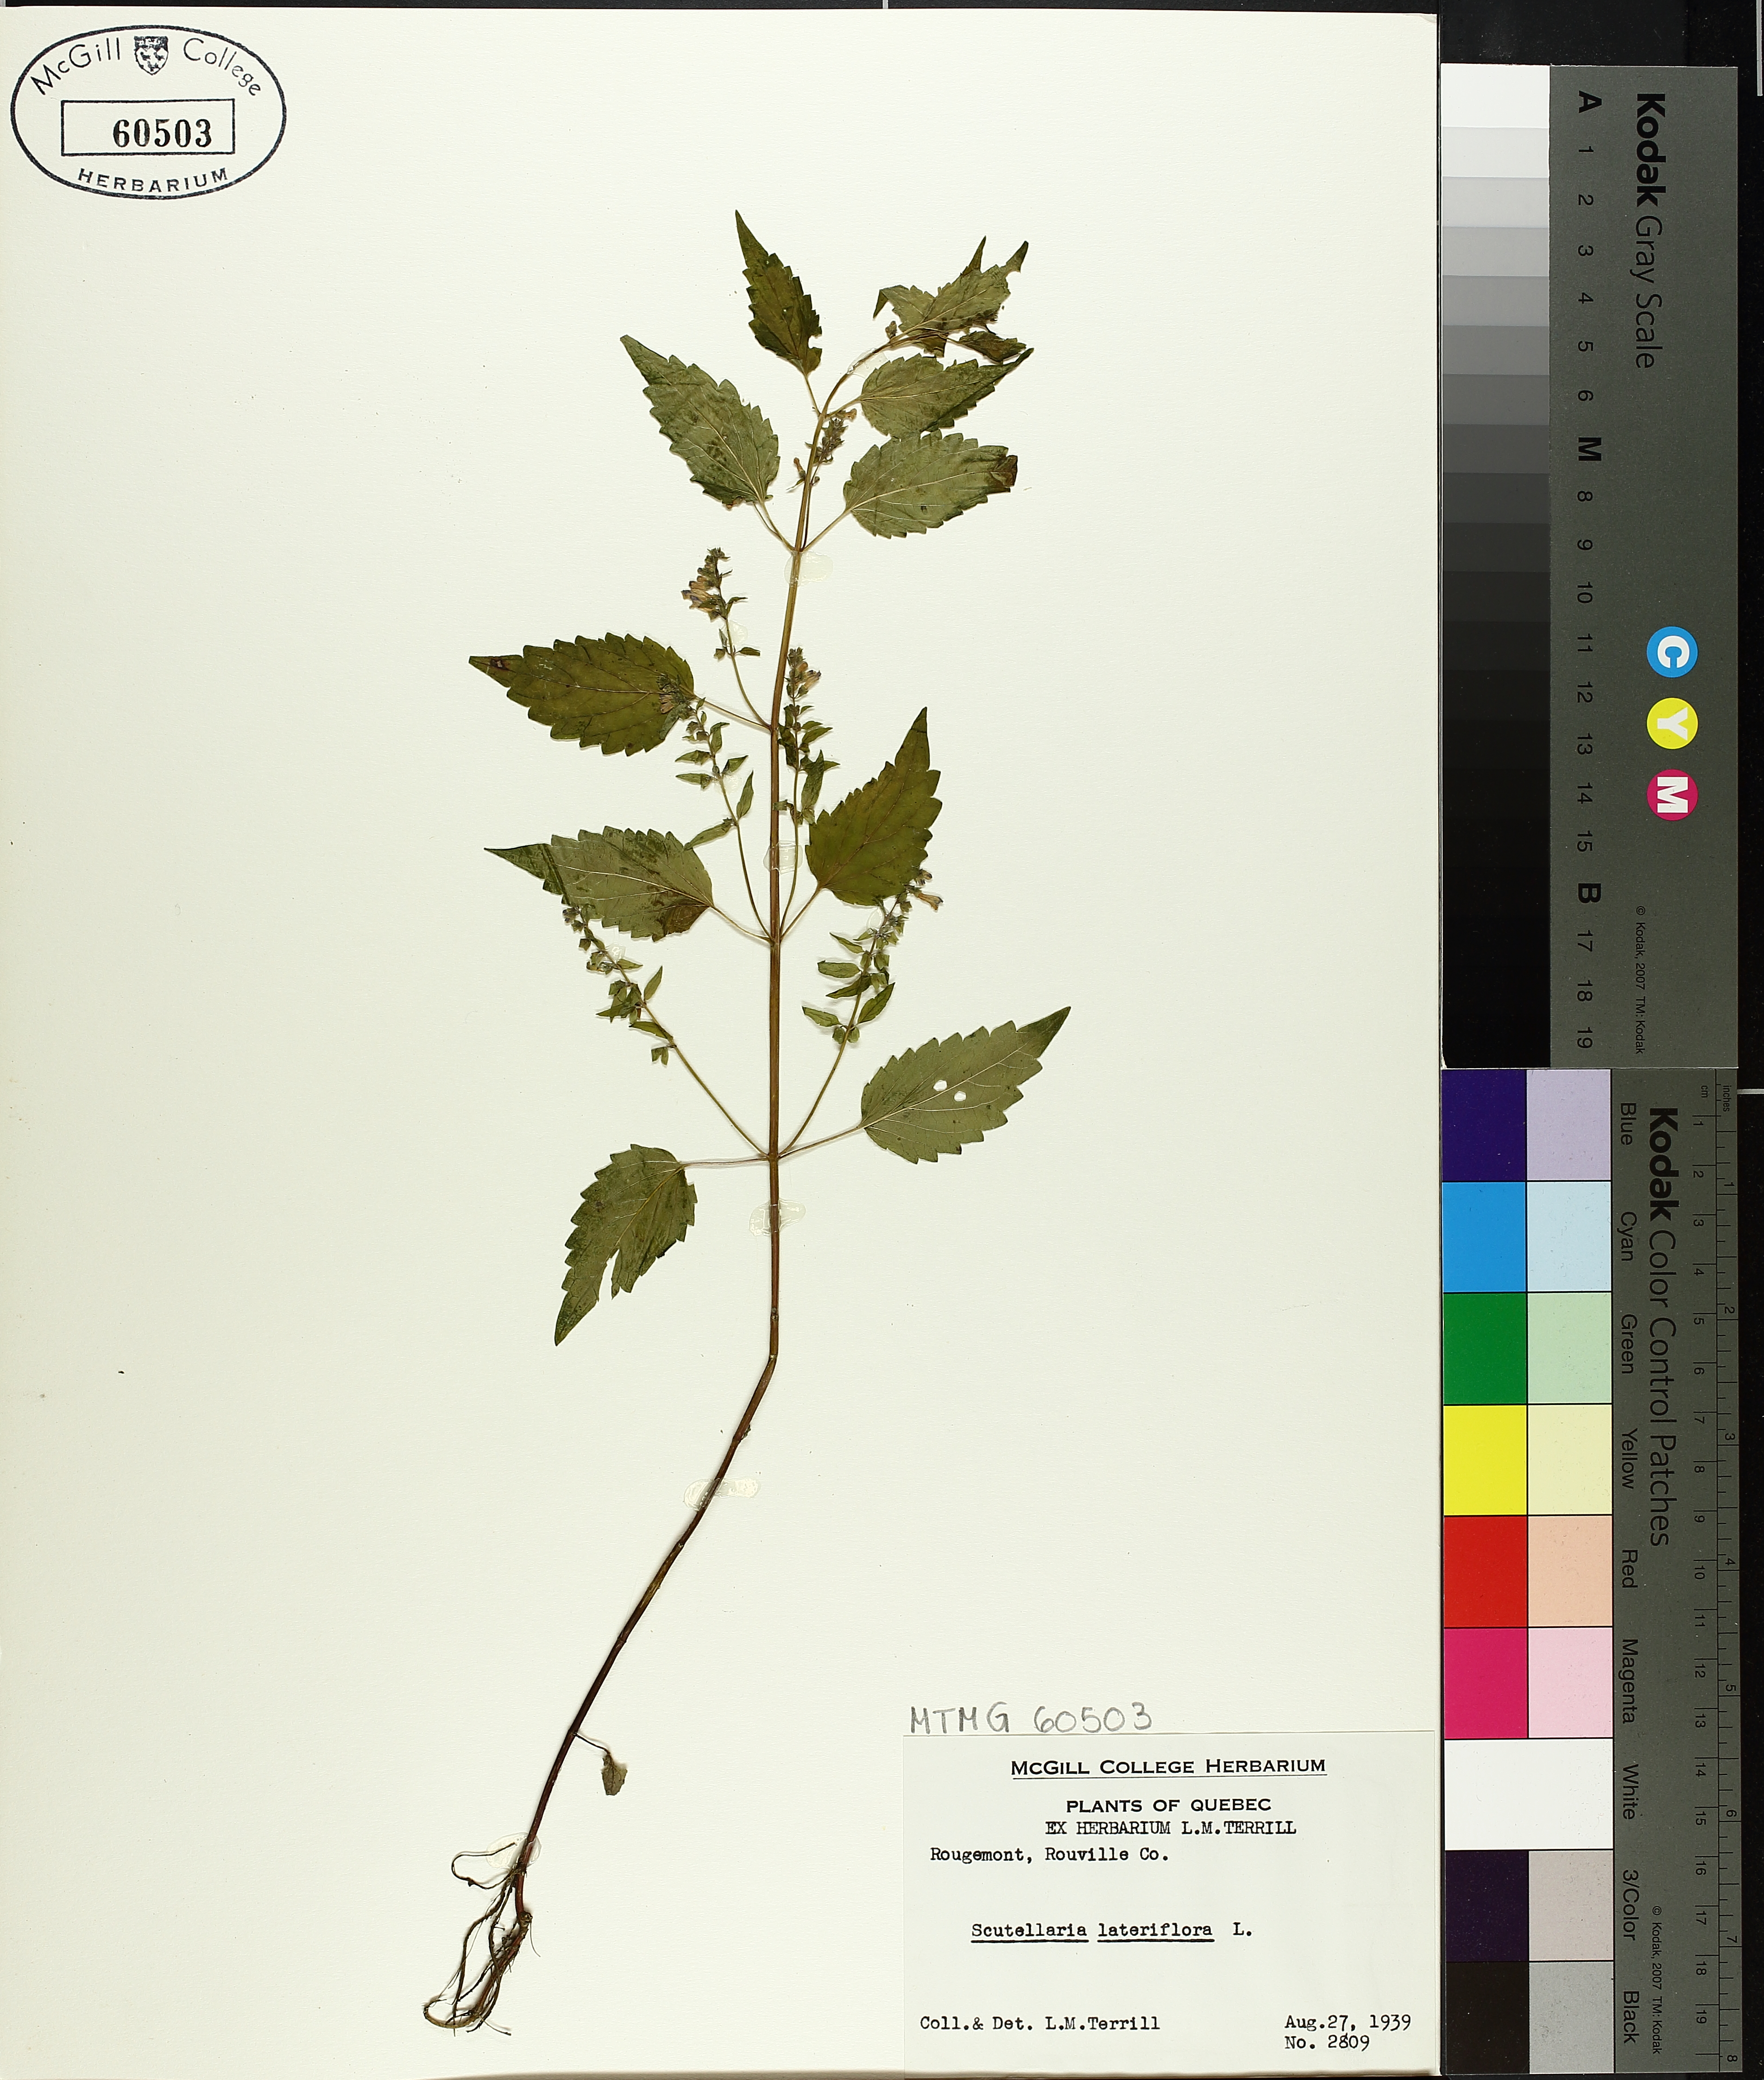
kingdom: Plantae
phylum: Tracheophyta
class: Magnoliopsida
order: Lamiales
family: Lamiaceae
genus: Scutellaria
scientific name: Scutellaria lateriflora
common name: Blue skullcap
